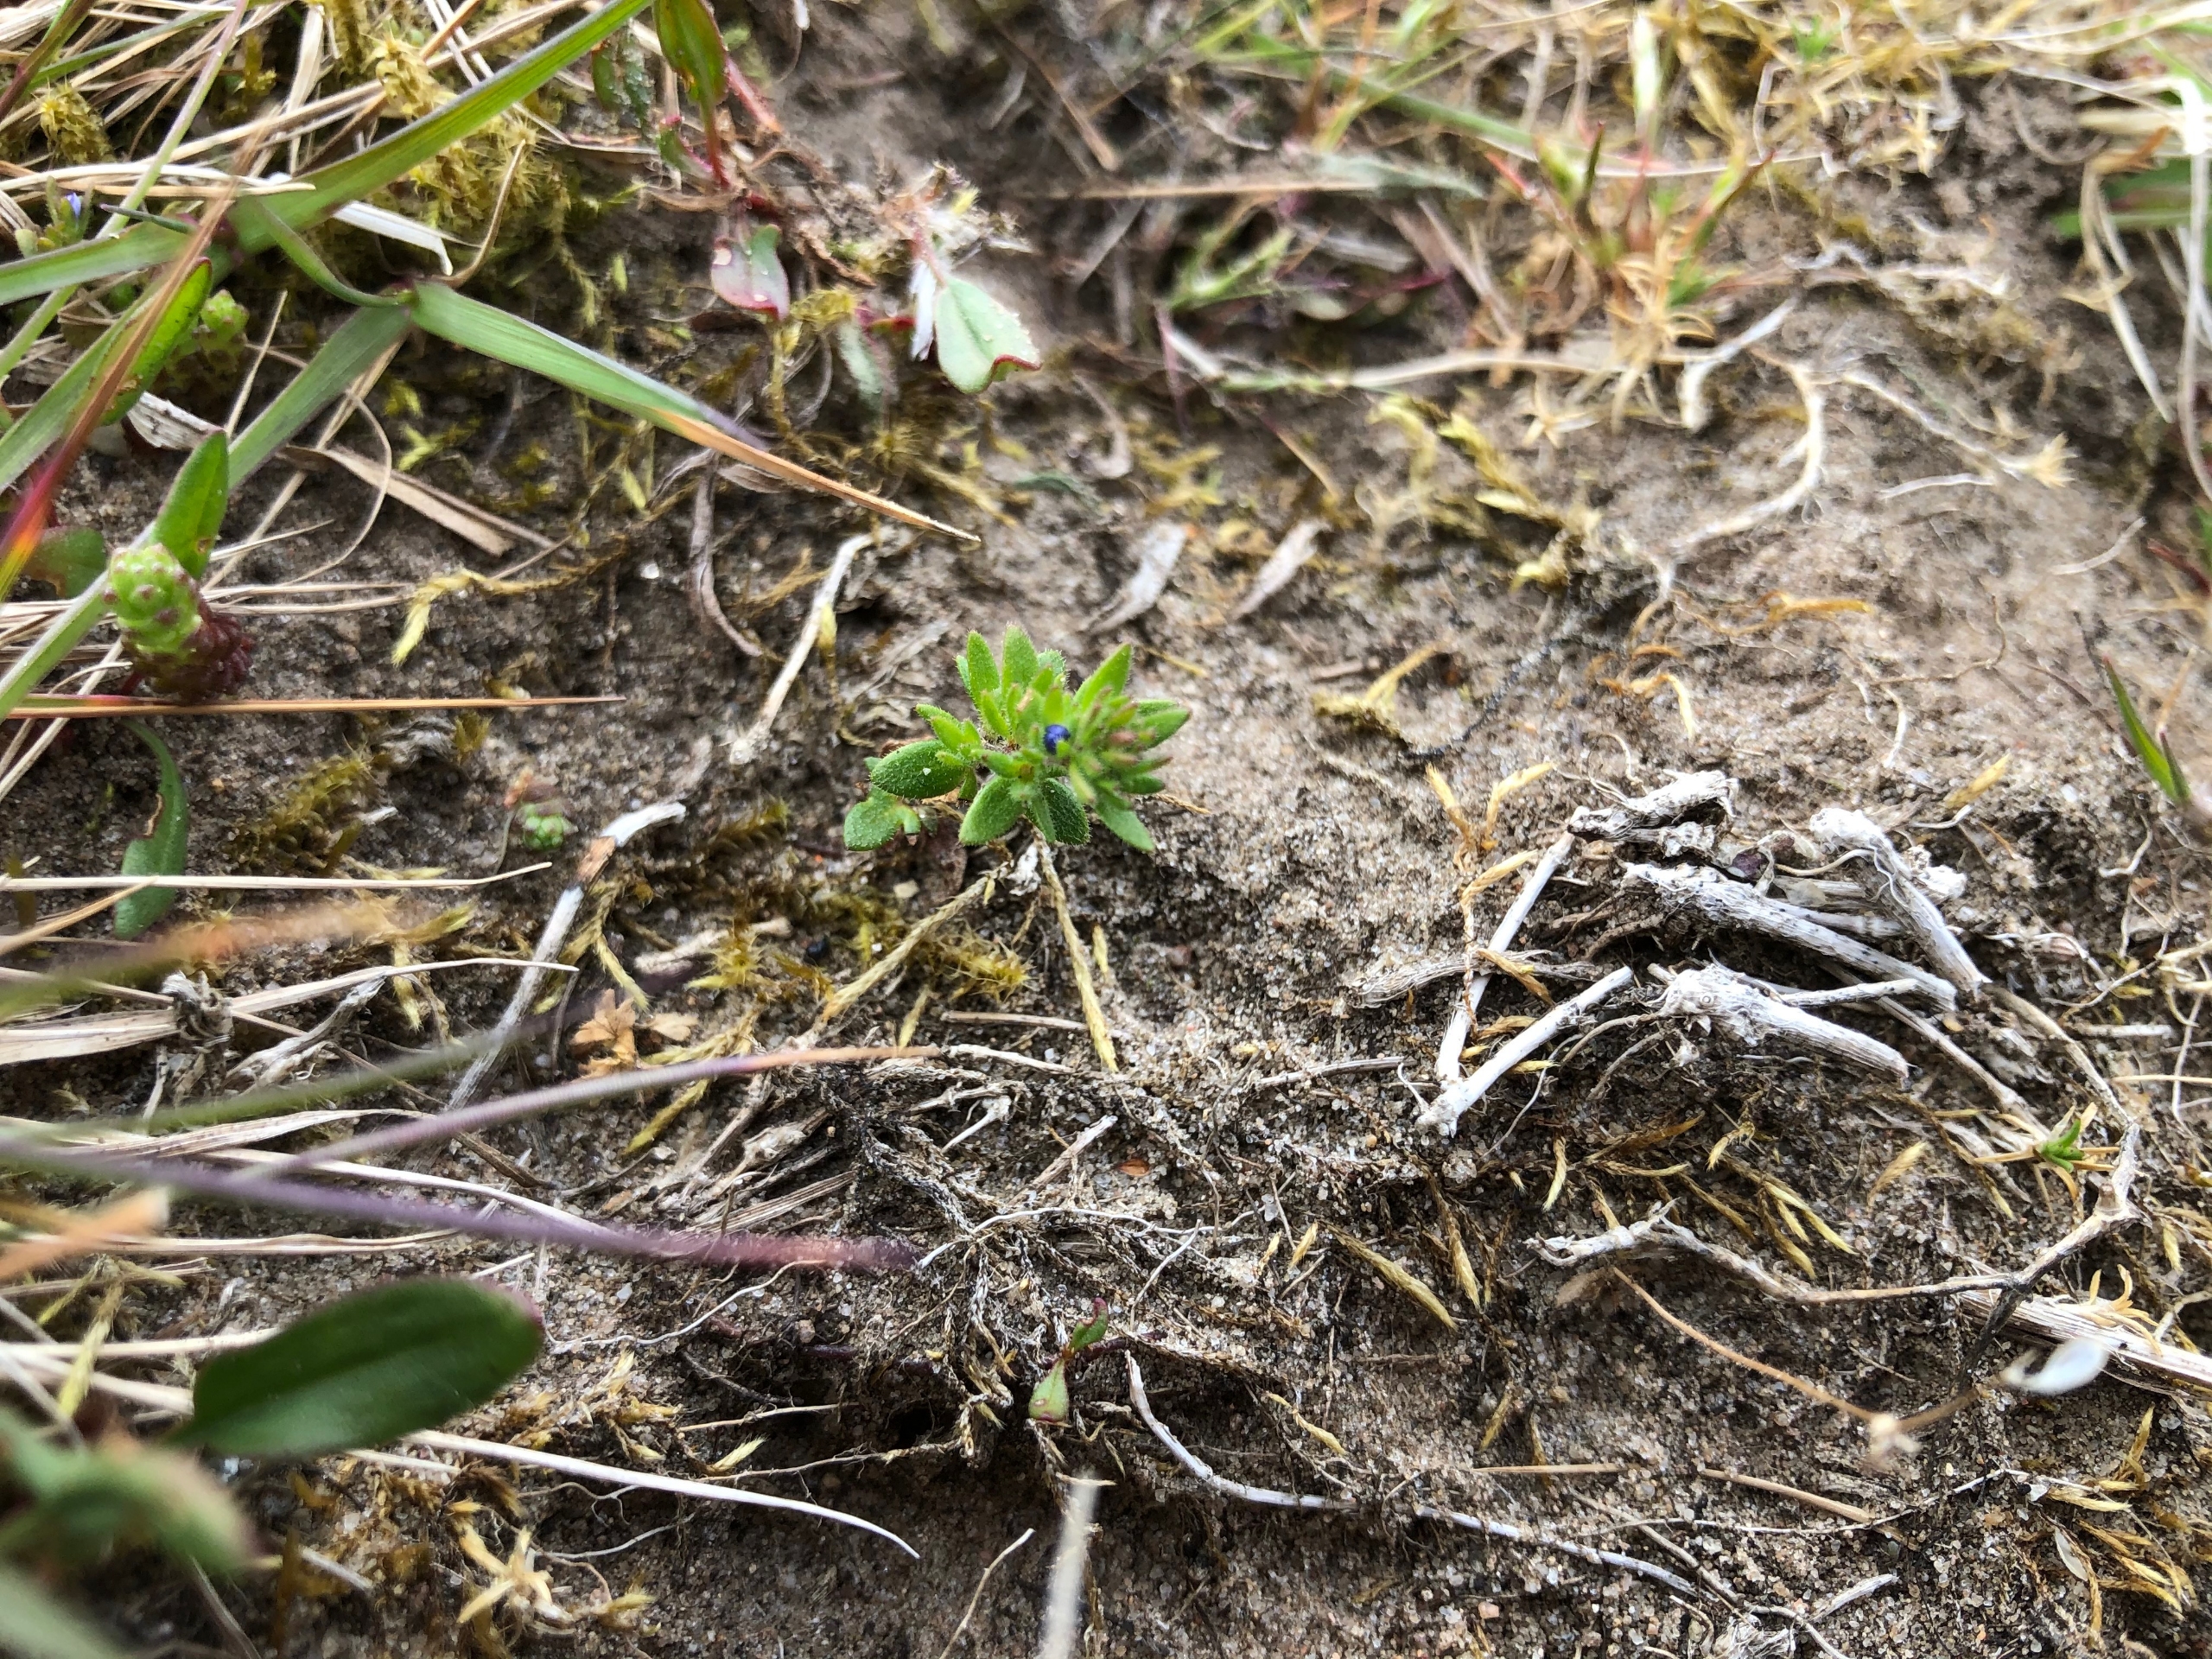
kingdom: Plantae
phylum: Tracheophyta
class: Magnoliopsida
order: Lamiales
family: Plantaginaceae
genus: Veronica
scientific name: Veronica verna
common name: Vår-ærenpris
